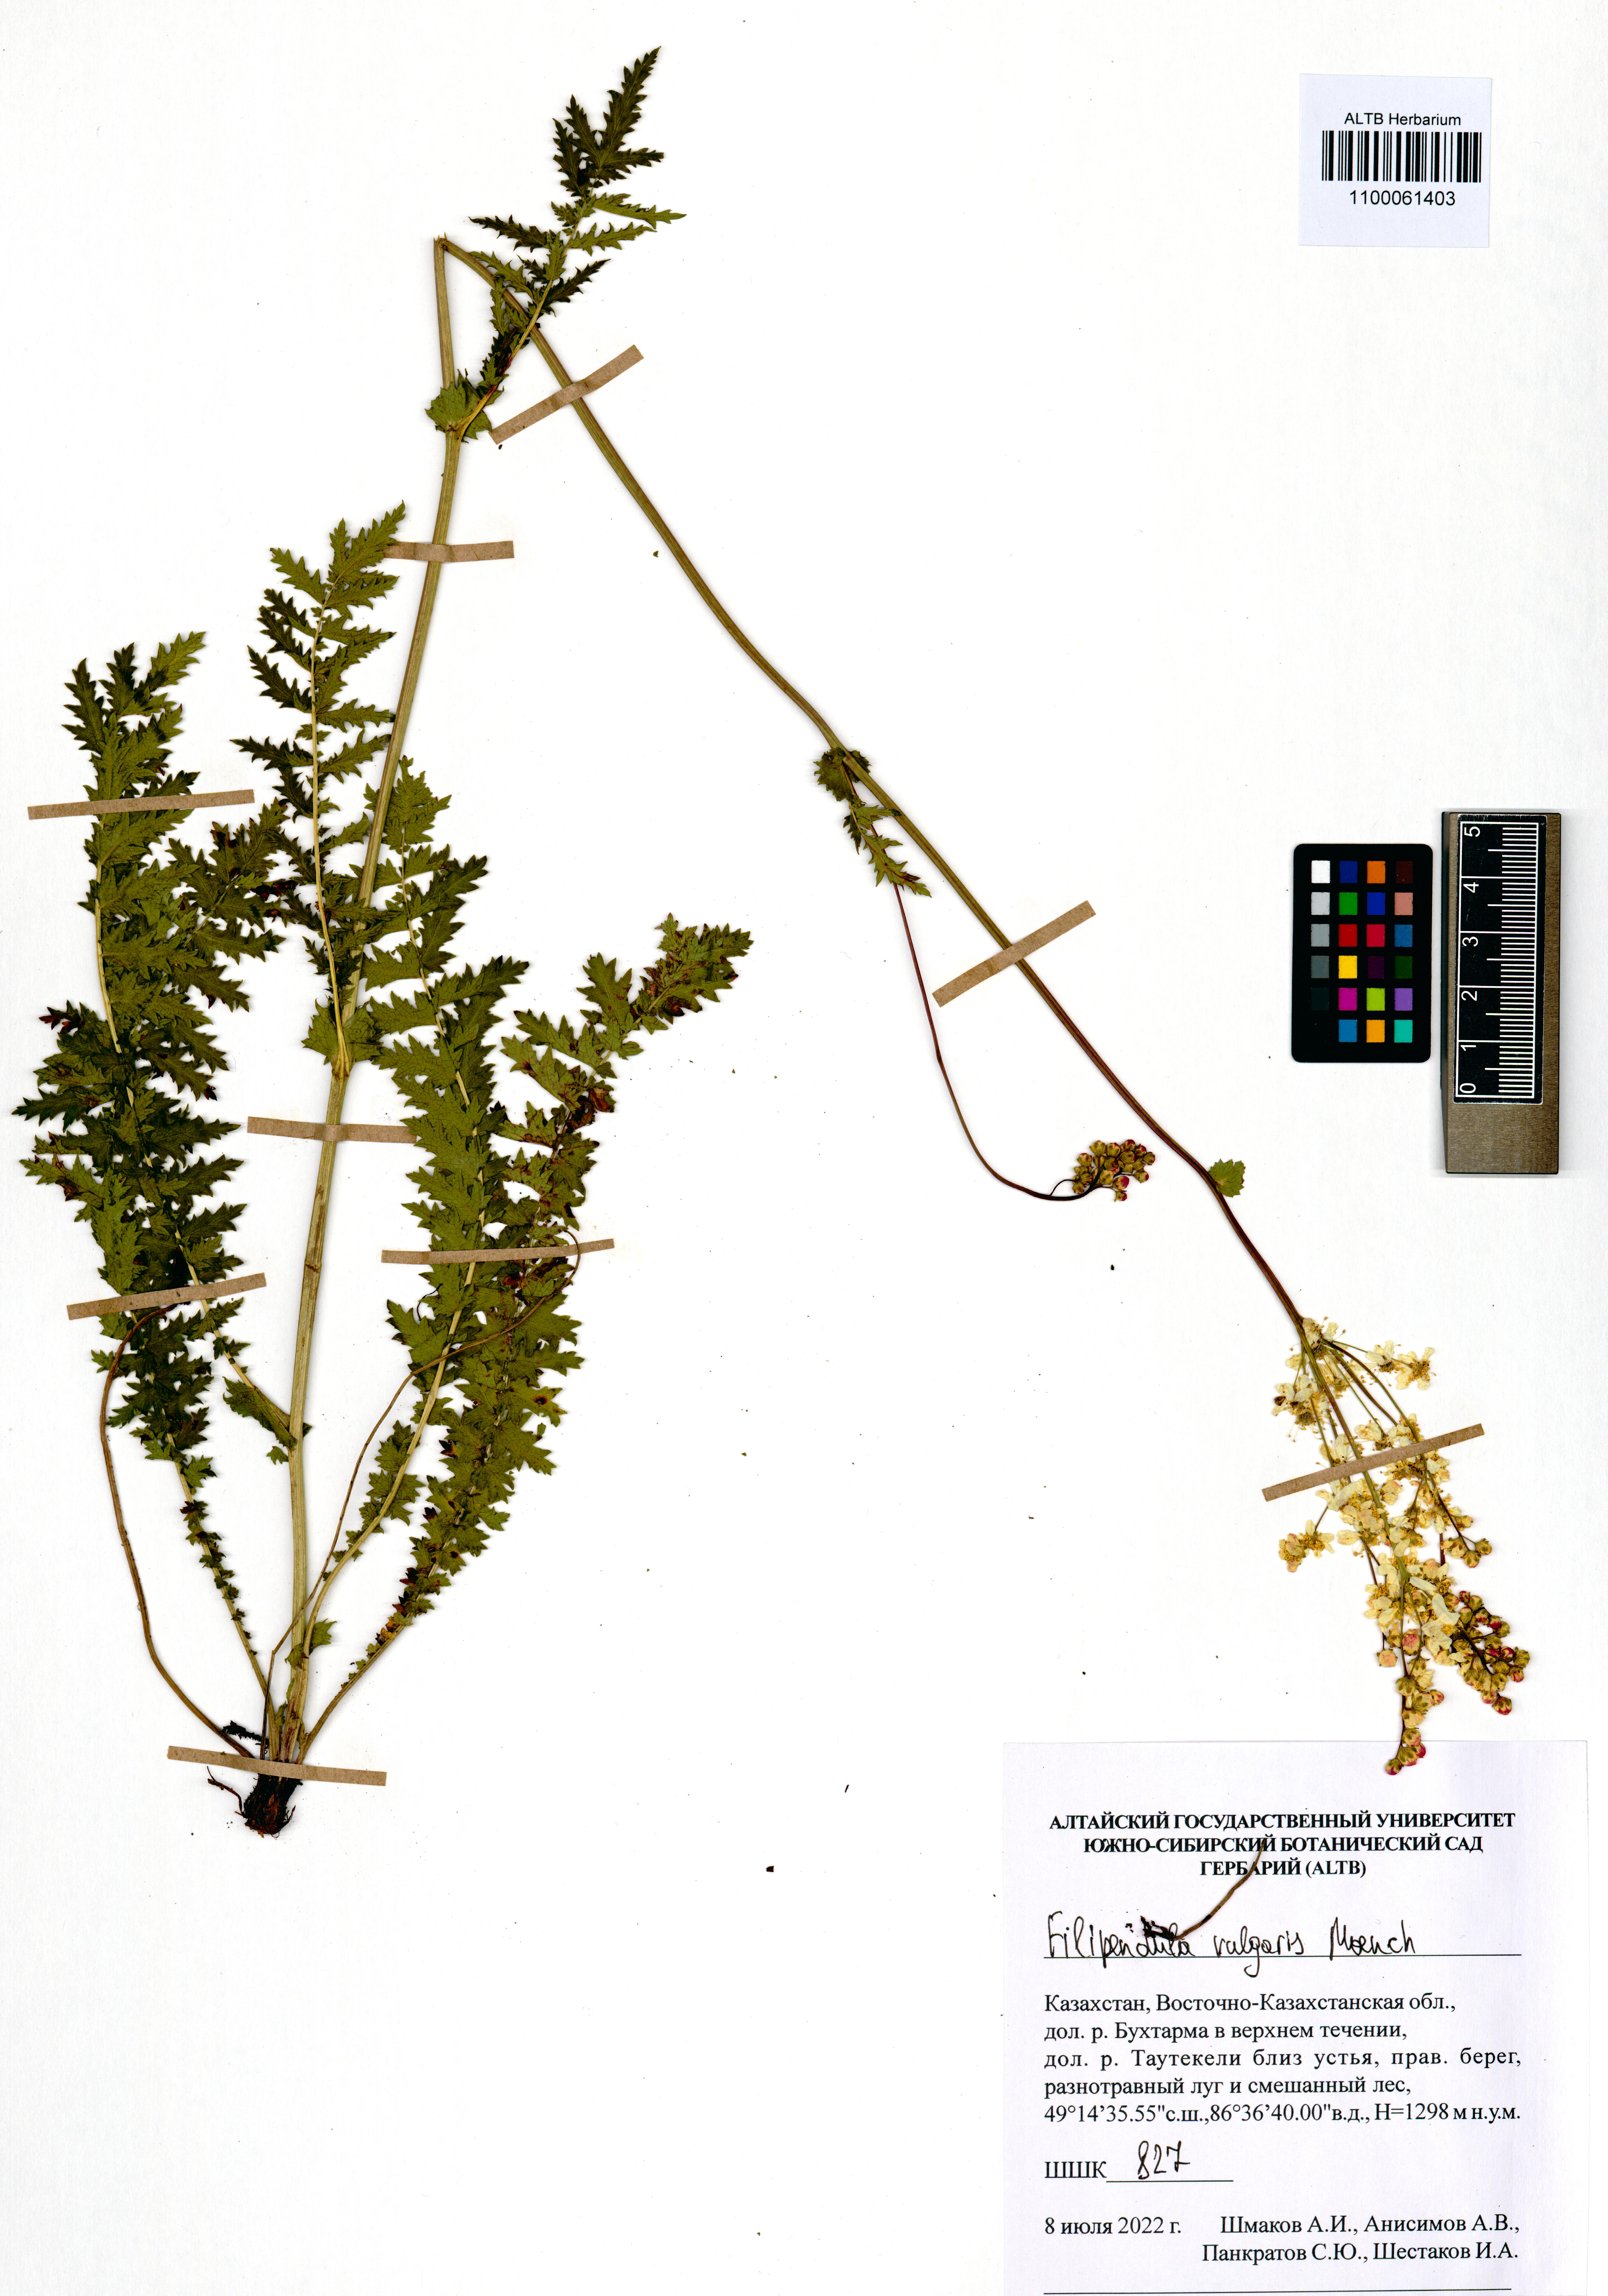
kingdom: Plantae
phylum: Tracheophyta
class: Magnoliopsida
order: Rosales
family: Rosaceae
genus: Filipendula
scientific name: Filipendula vulgaris
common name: Dropwort
